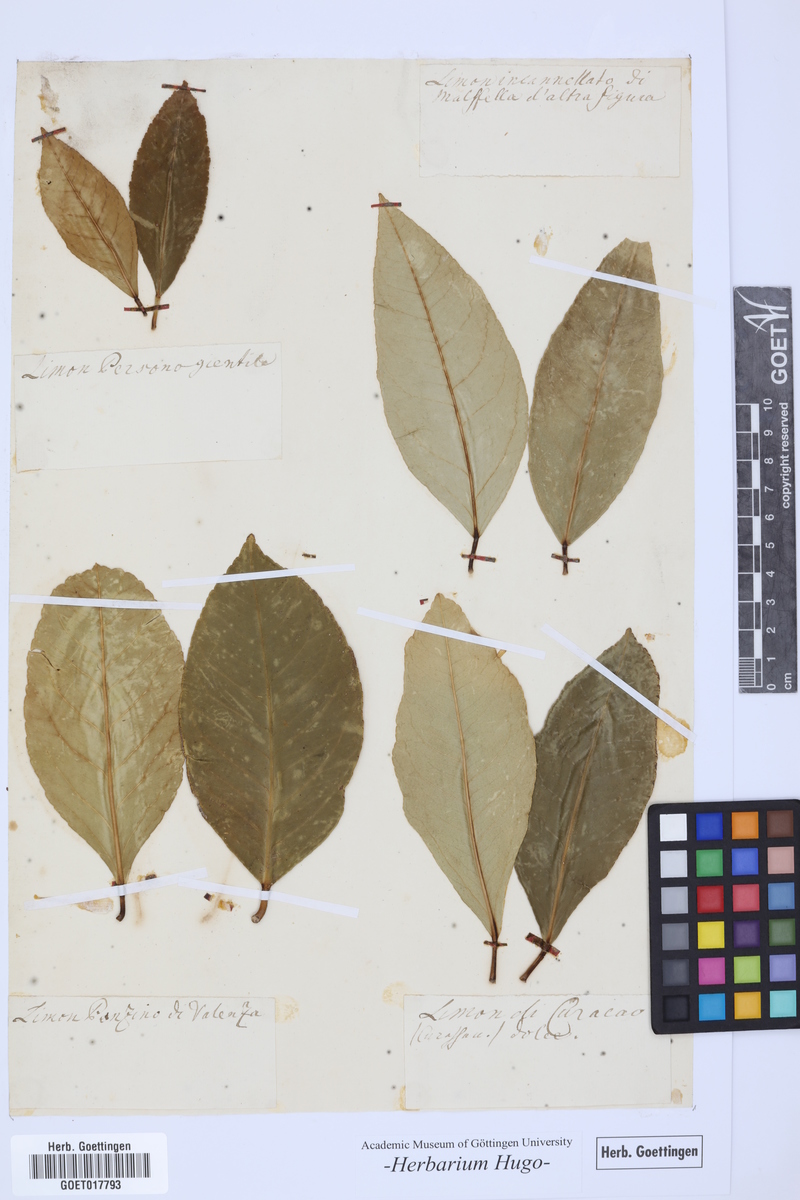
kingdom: Plantae
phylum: Tracheophyta
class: Magnoliopsida
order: Sapindales
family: Rutaceae
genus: Citrus
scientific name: Citrus
